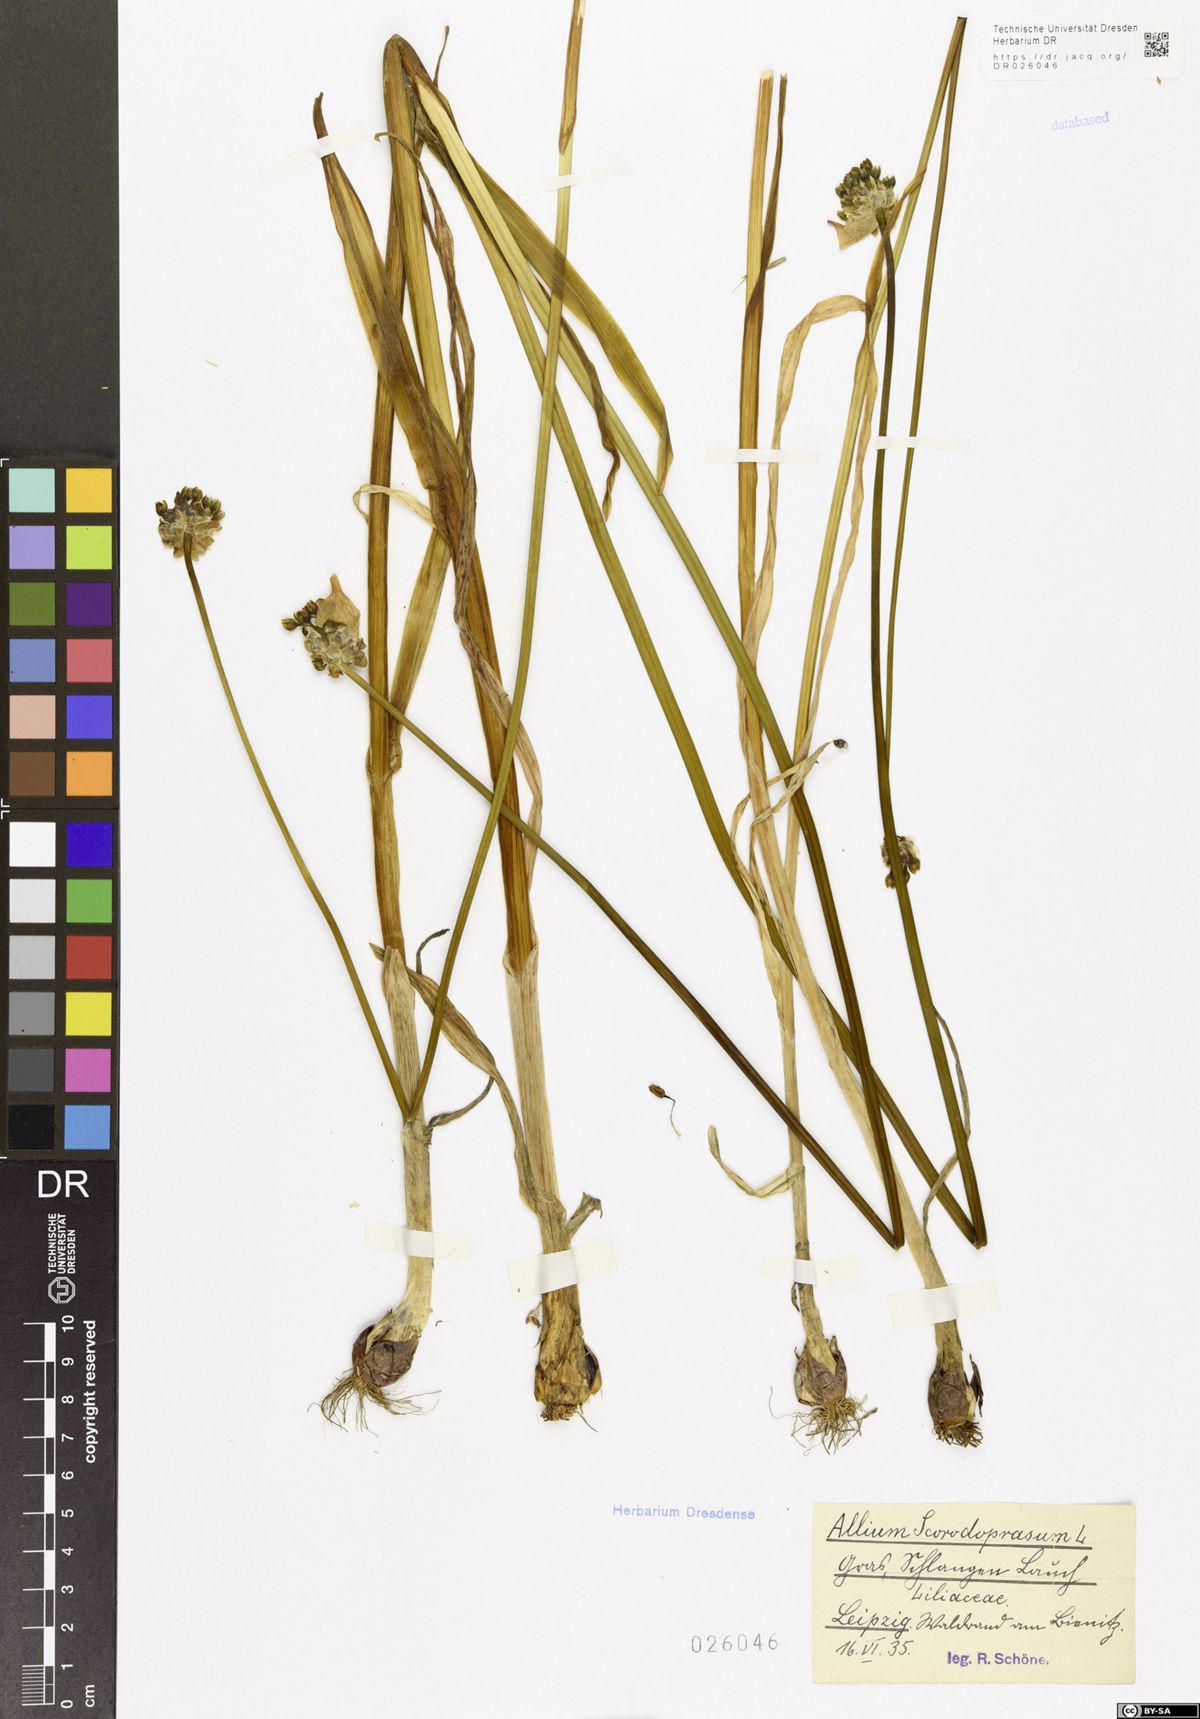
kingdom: Plantae
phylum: Tracheophyta
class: Liliopsida
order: Asparagales
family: Amaryllidaceae
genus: Allium
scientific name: Allium scorodoprasum
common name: Sand leek
